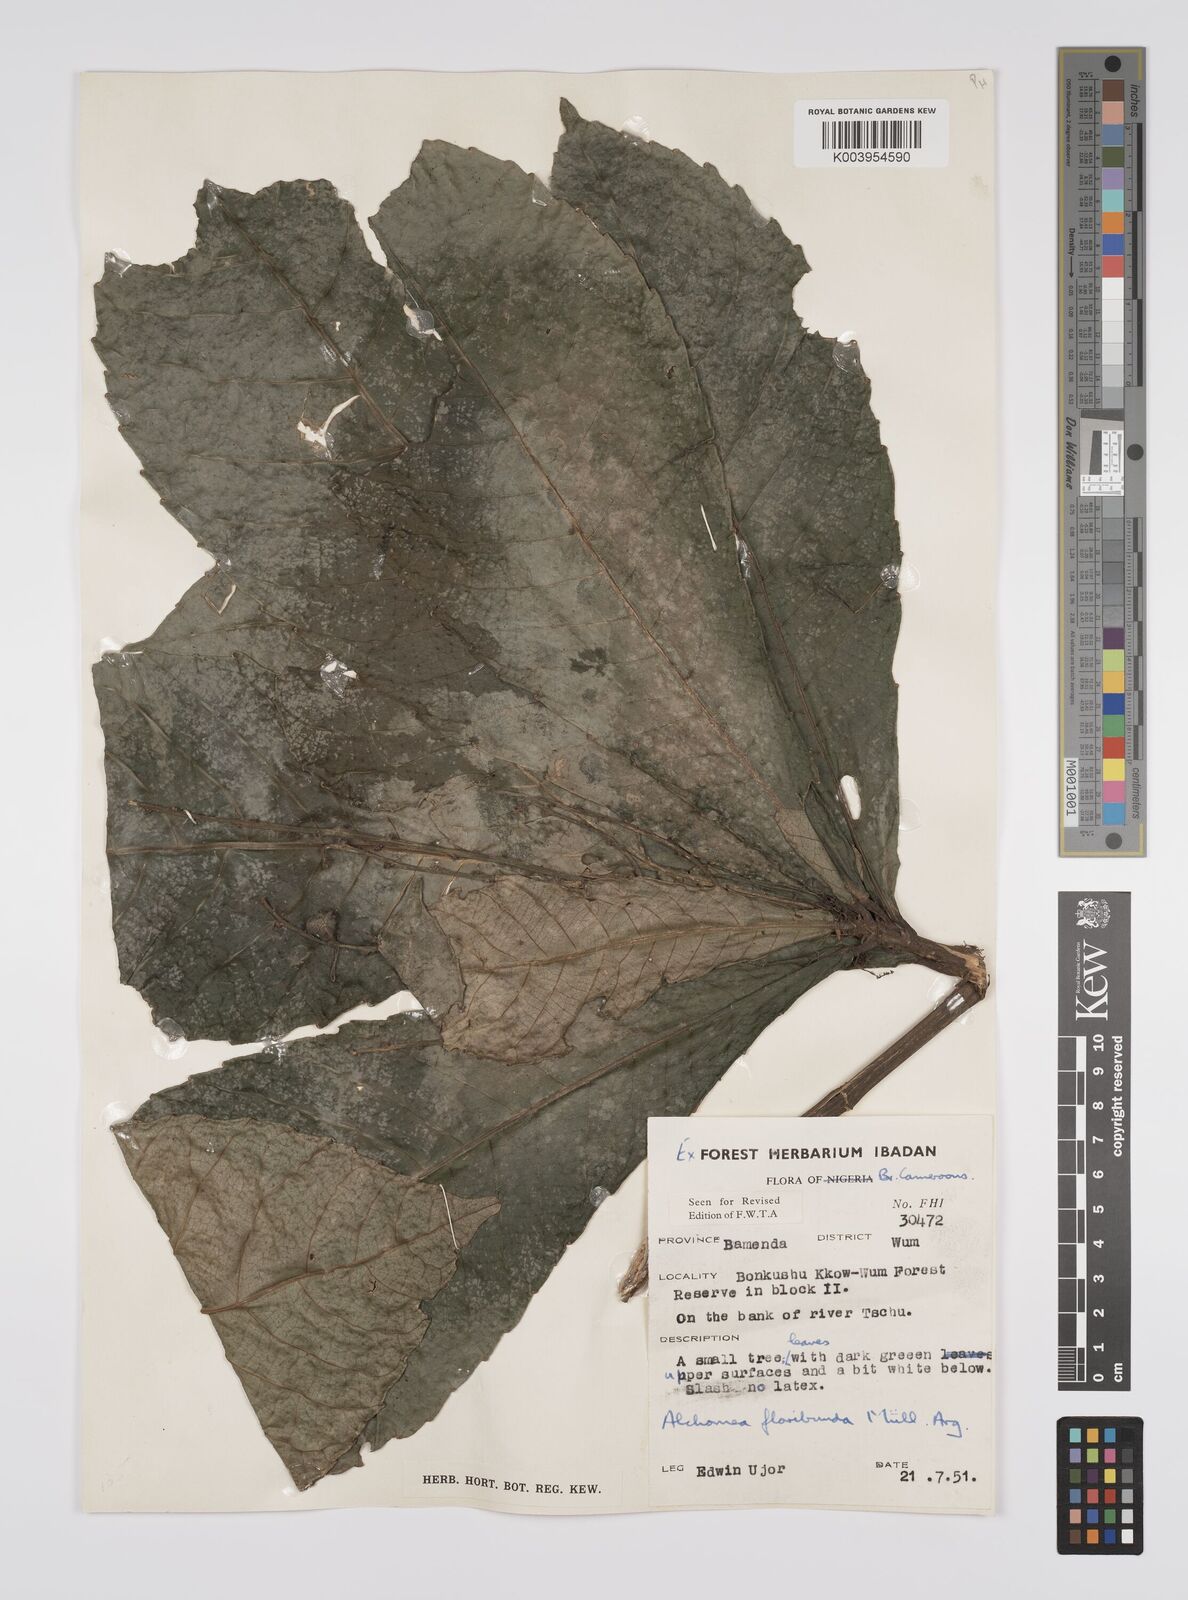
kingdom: Plantae
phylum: Tracheophyta
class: Magnoliopsida
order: Malpighiales
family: Euphorbiaceae
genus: Alchornea
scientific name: Alchornea floribunda
